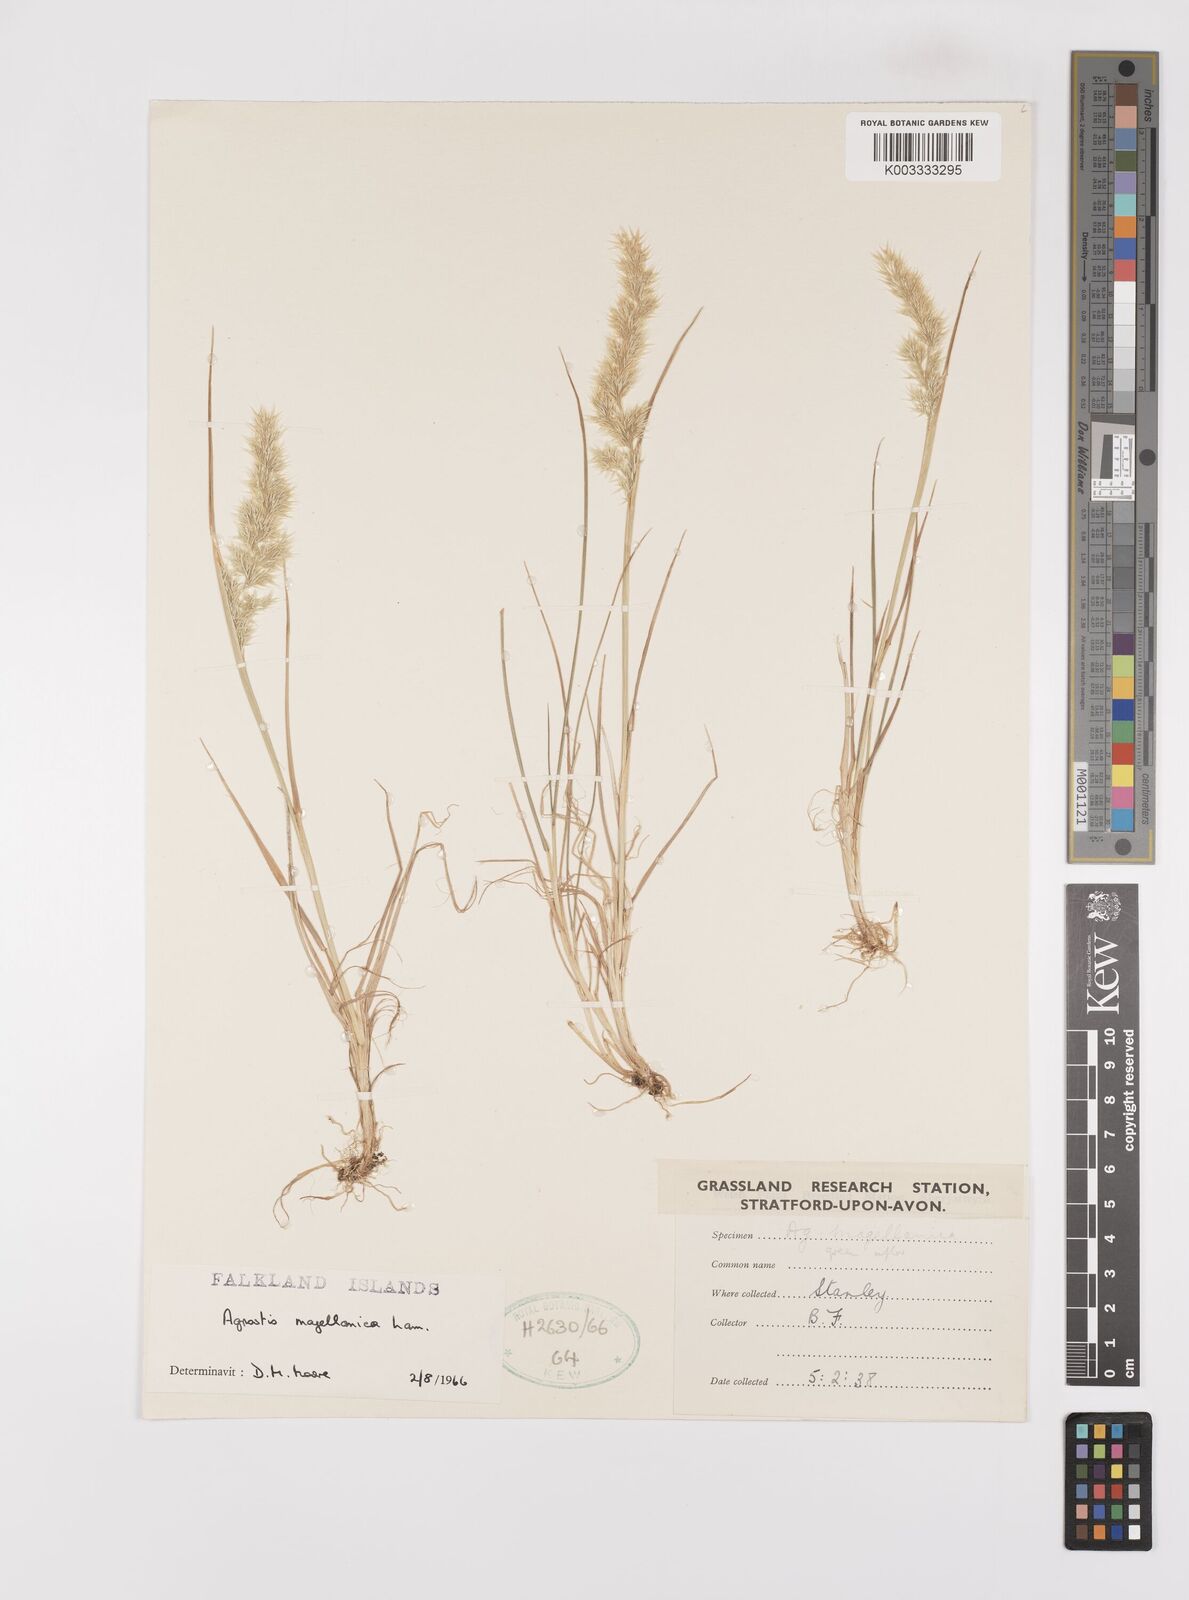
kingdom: Plantae
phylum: Tracheophyta
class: Liliopsida
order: Poales
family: Poaceae
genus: Polypogon
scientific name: Polypogon magellanicus
